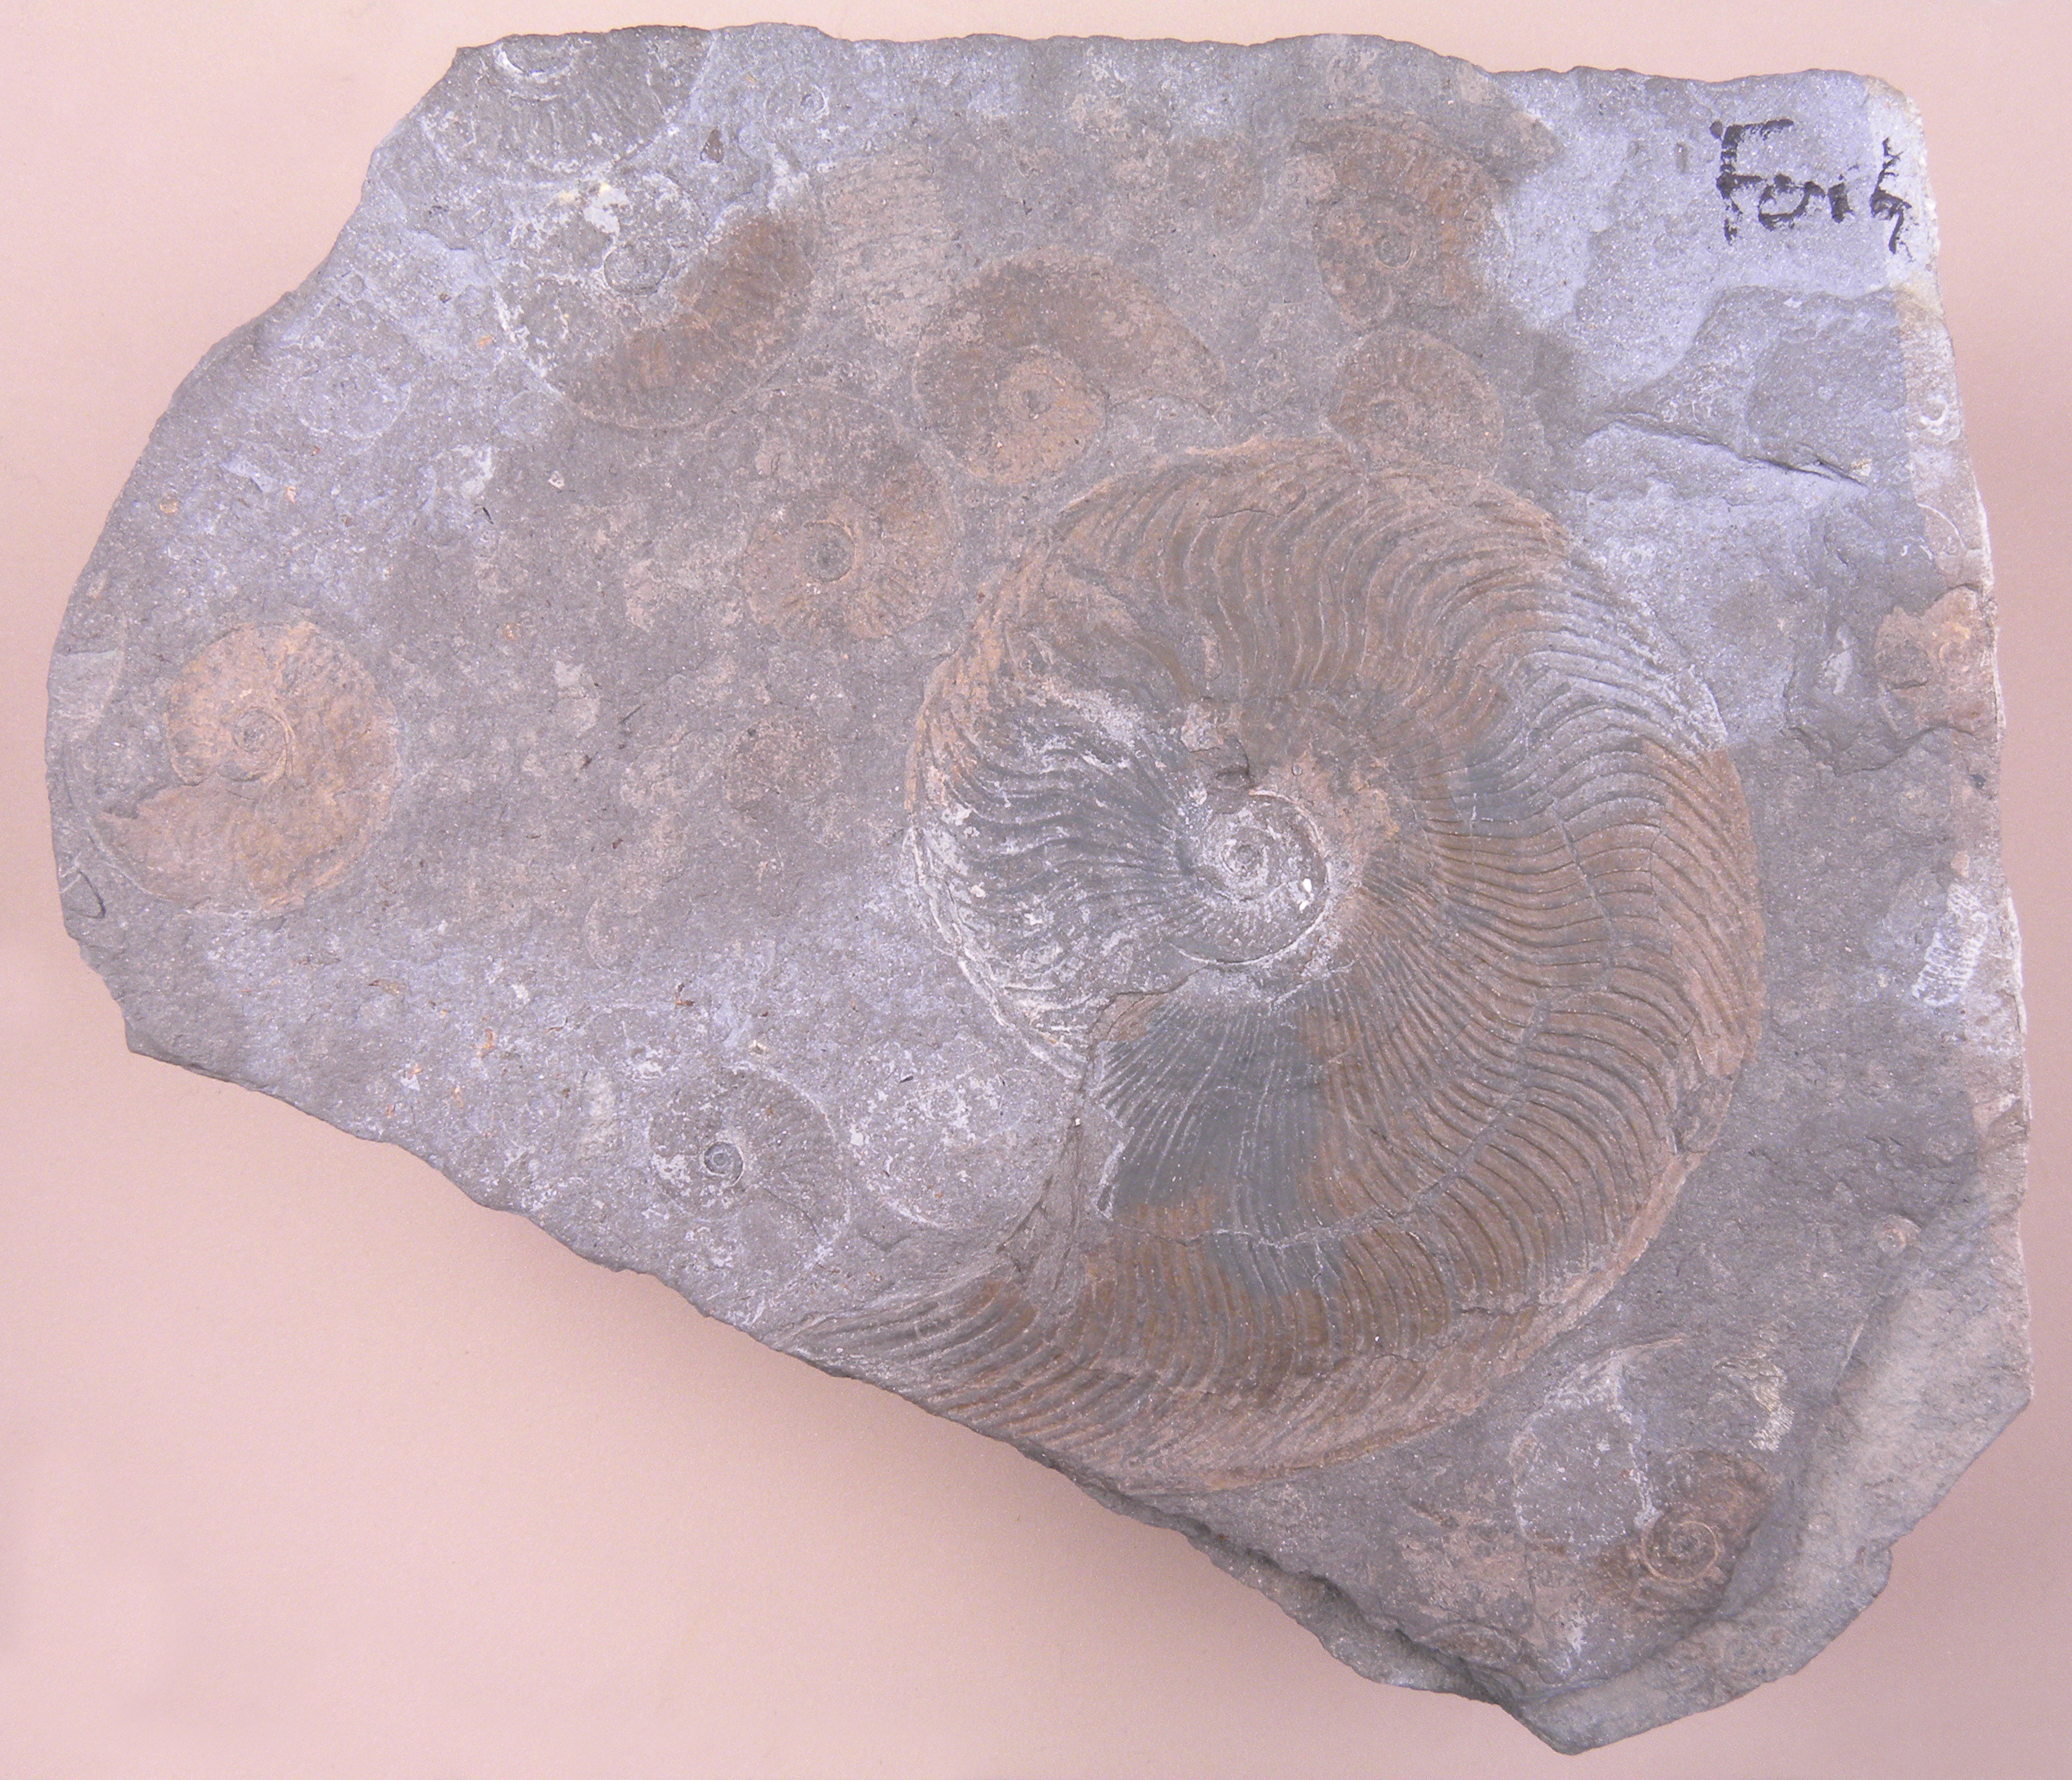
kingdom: Animalia
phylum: Mollusca
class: Cephalopoda
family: Hildoceratidae
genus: Eleganticeras
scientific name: Eleganticeras exaratum
